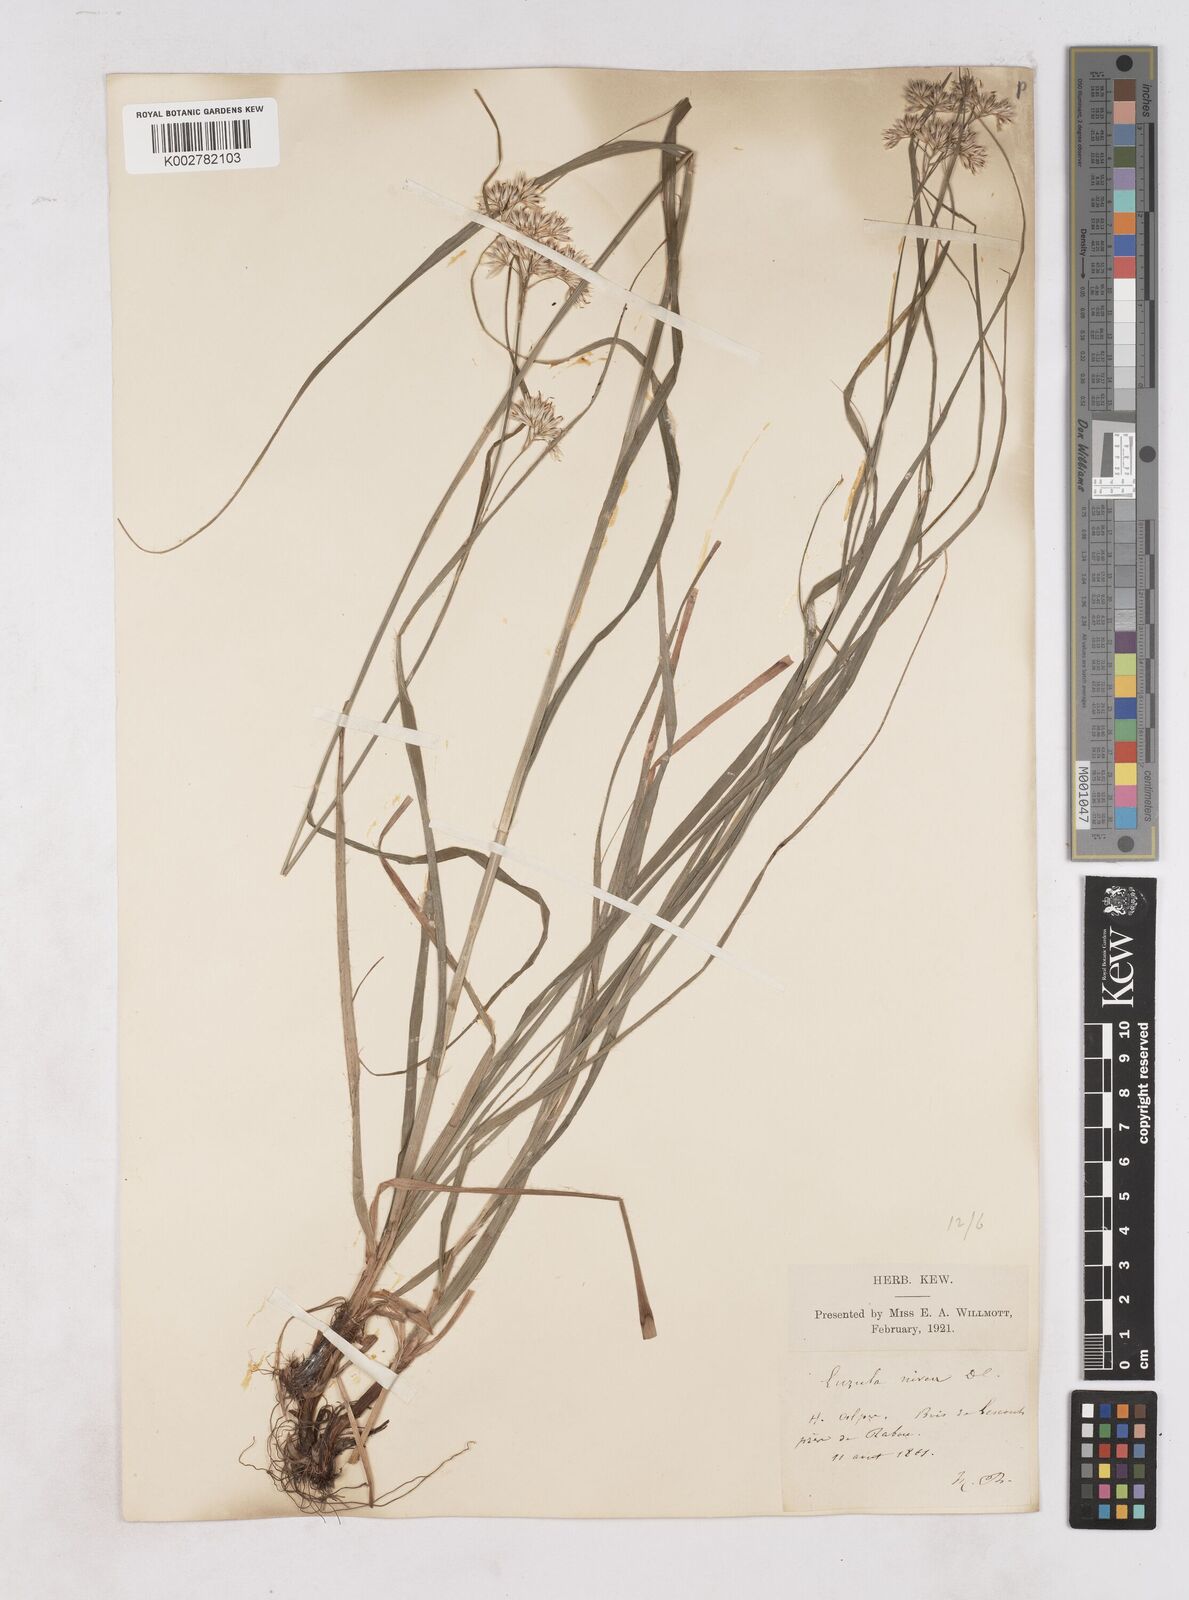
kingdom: Plantae
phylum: Tracheophyta
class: Liliopsida
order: Poales
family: Juncaceae
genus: Luzula
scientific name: Luzula nivea
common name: Snow-white wood-rush
